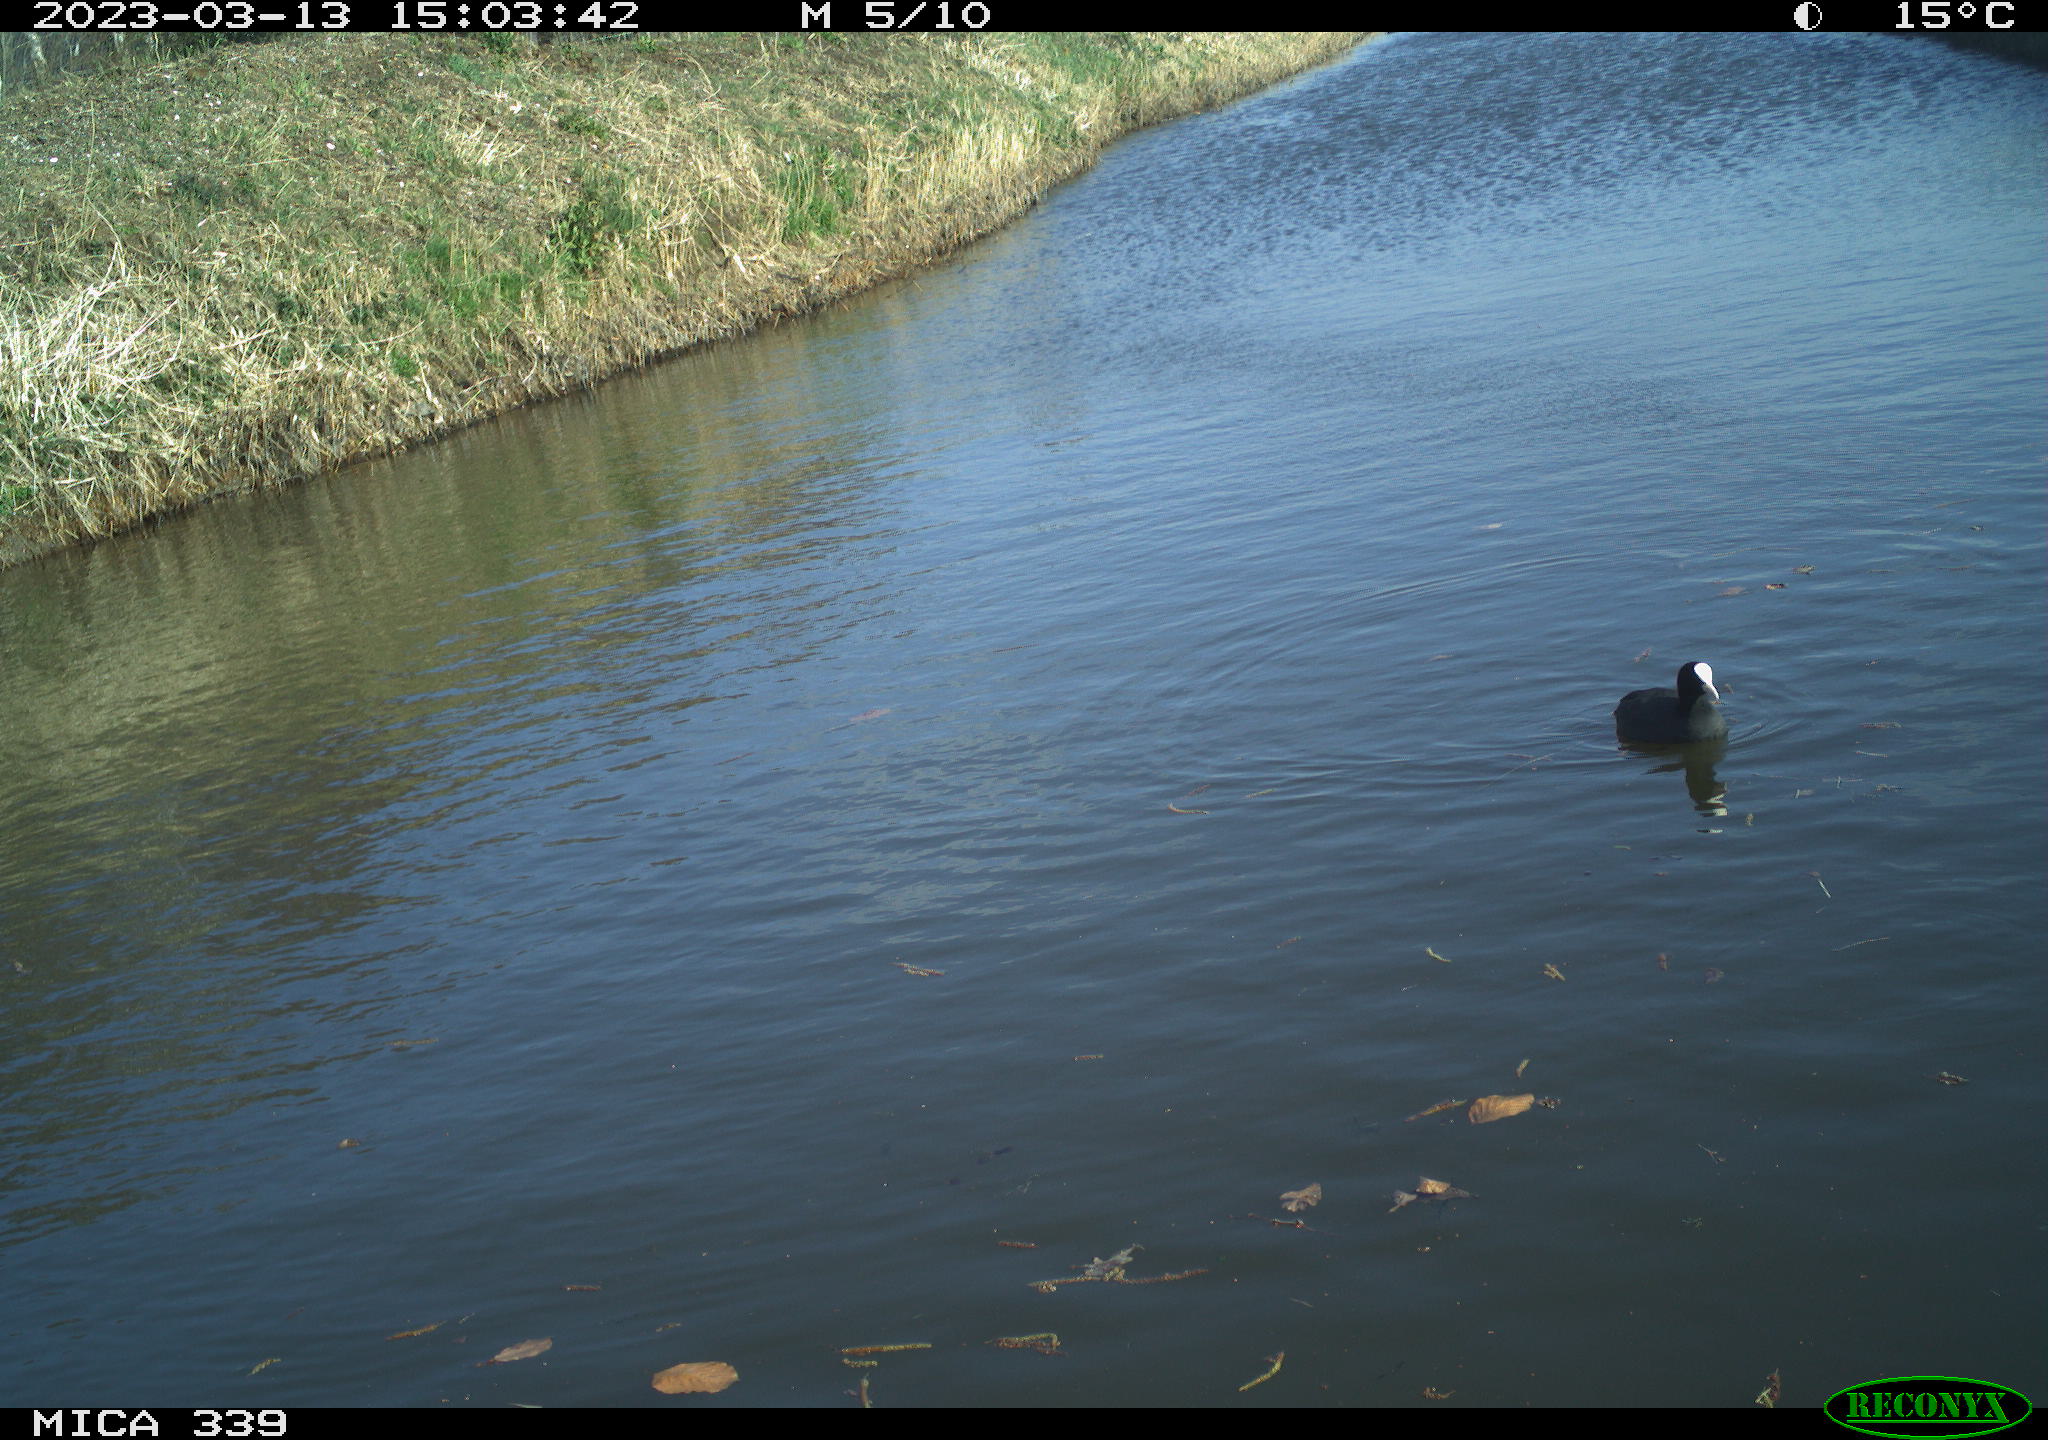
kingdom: Animalia
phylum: Chordata
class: Aves
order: Gruiformes
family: Rallidae
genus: Fulica
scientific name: Fulica atra
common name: Eurasian coot
